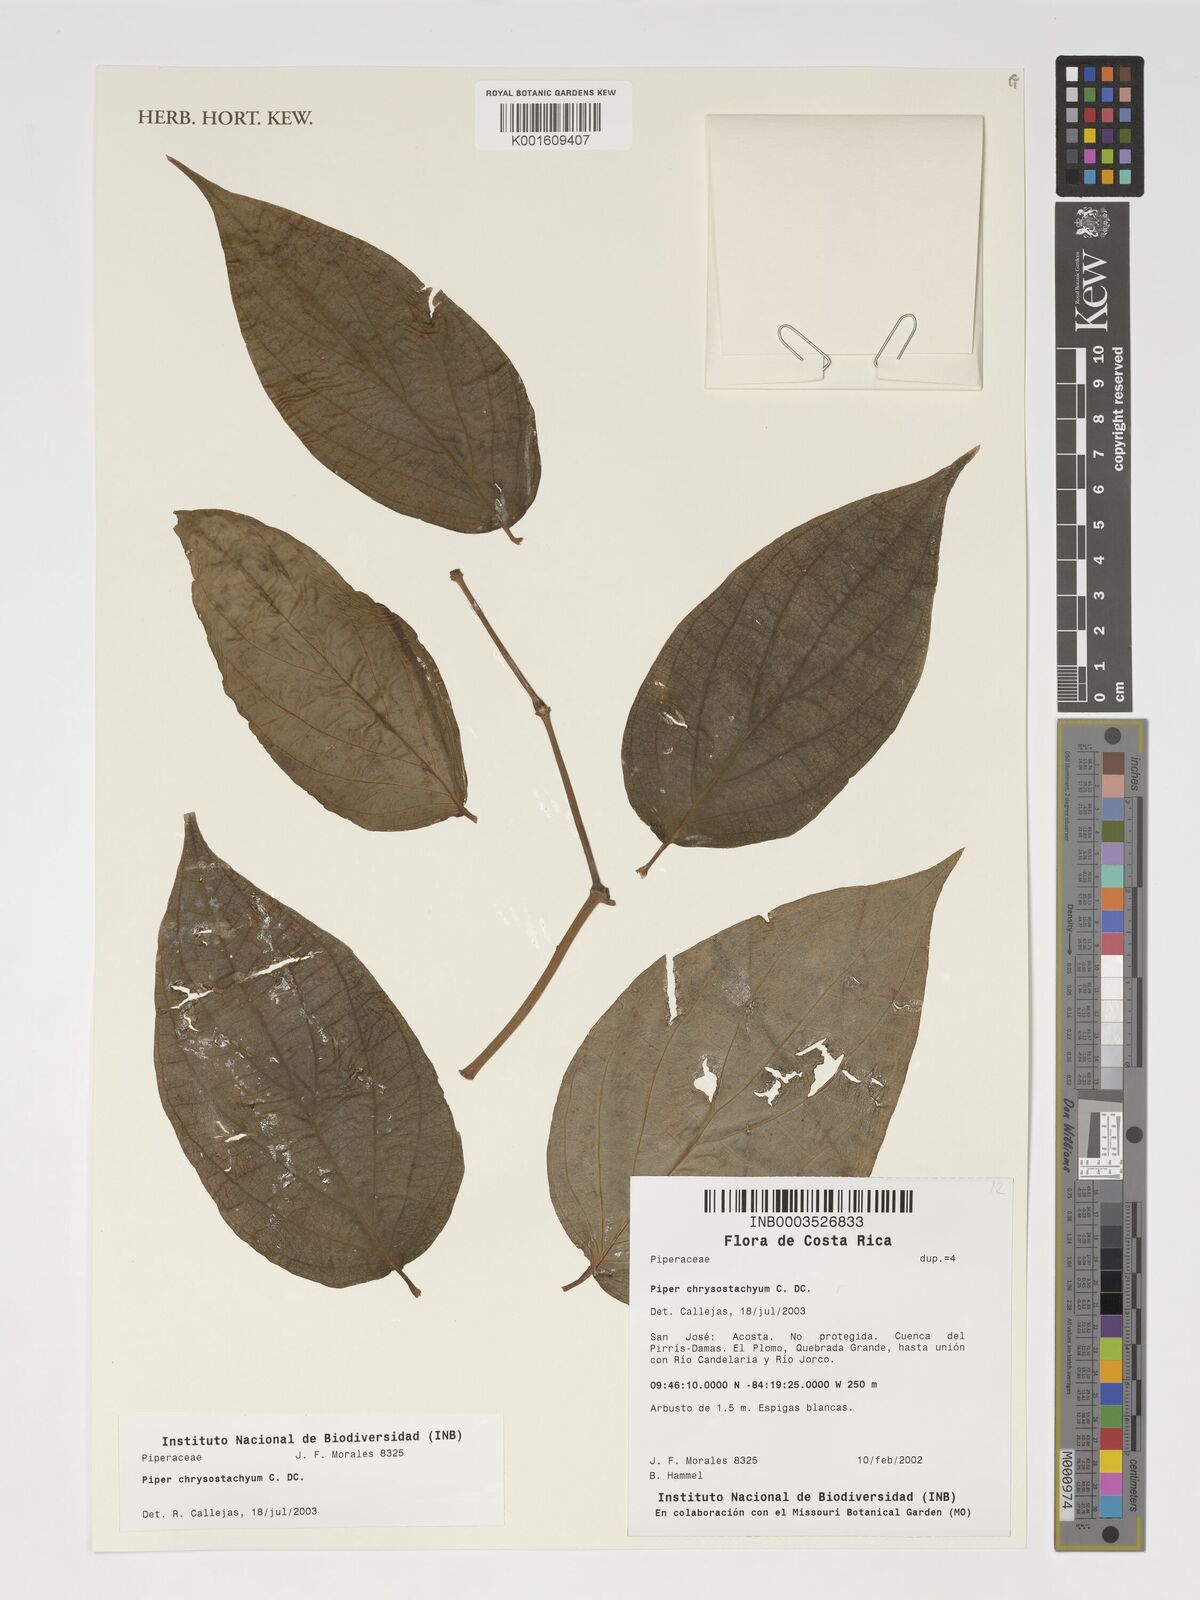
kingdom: Plantae
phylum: Tracheophyta
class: Magnoliopsida
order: Piperales
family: Piperaceae
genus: Piper
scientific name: Piper chrysostachyum
